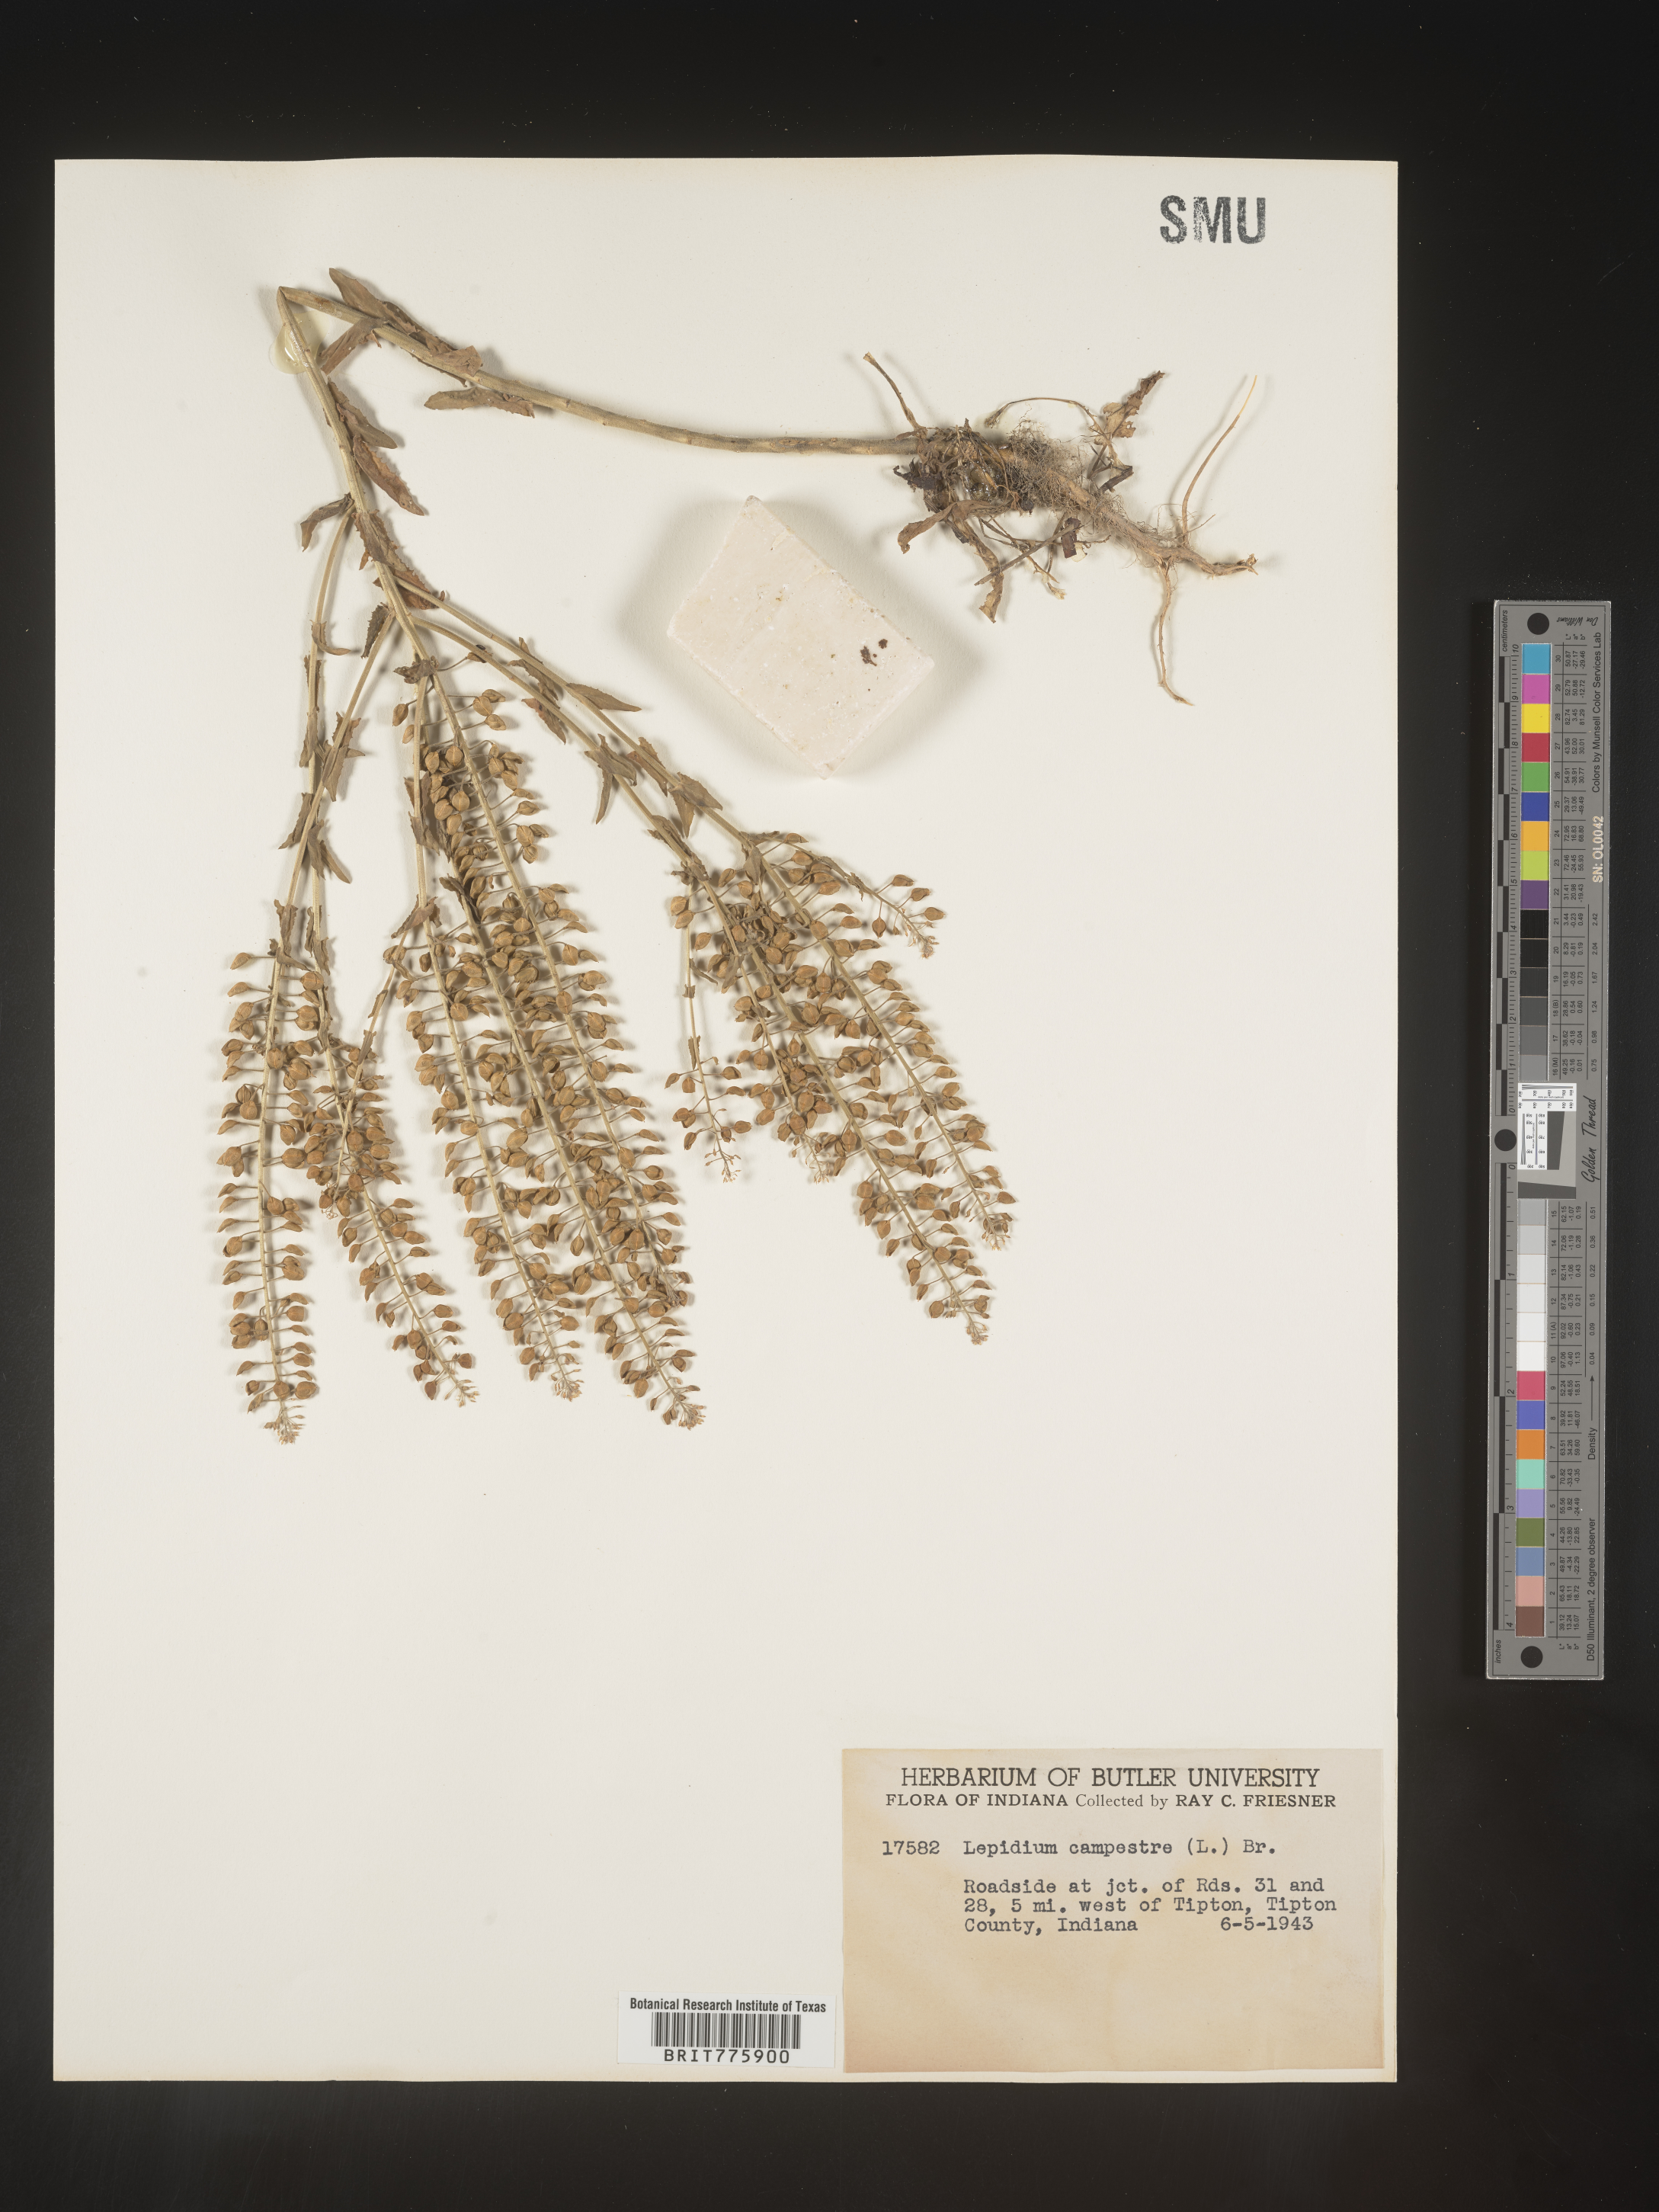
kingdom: Plantae
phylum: Tracheophyta
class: Magnoliopsida
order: Brassicales
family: Brassicaceae
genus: Lepidium
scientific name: Lepidium campestre
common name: Field pepperwort
